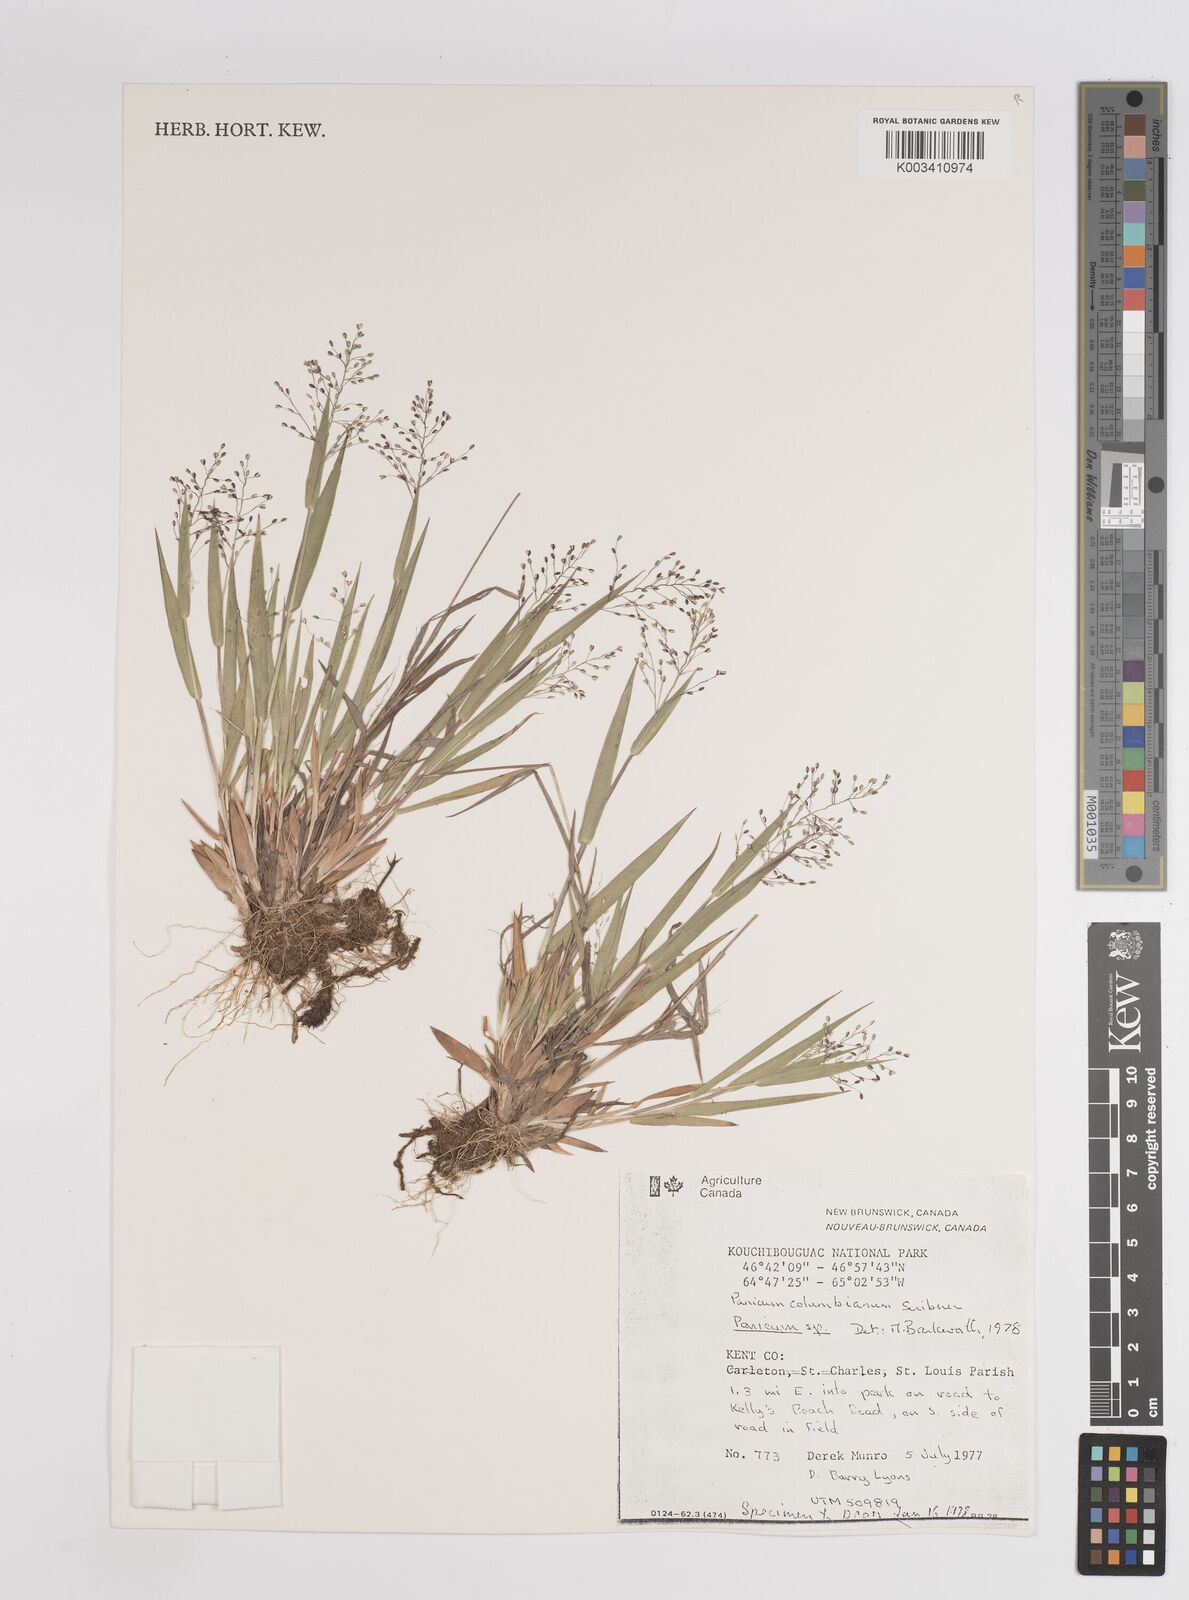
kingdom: Plantae
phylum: Tracheophyta
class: Liliopsida
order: Poales
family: Poaceae
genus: Dichanthelium
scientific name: Dichanthelium columbianum
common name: Hemlock panic grass
